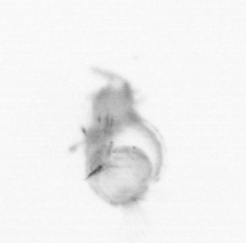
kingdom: Animalia
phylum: Annelida
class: Polychaeta
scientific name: Polychaeta
